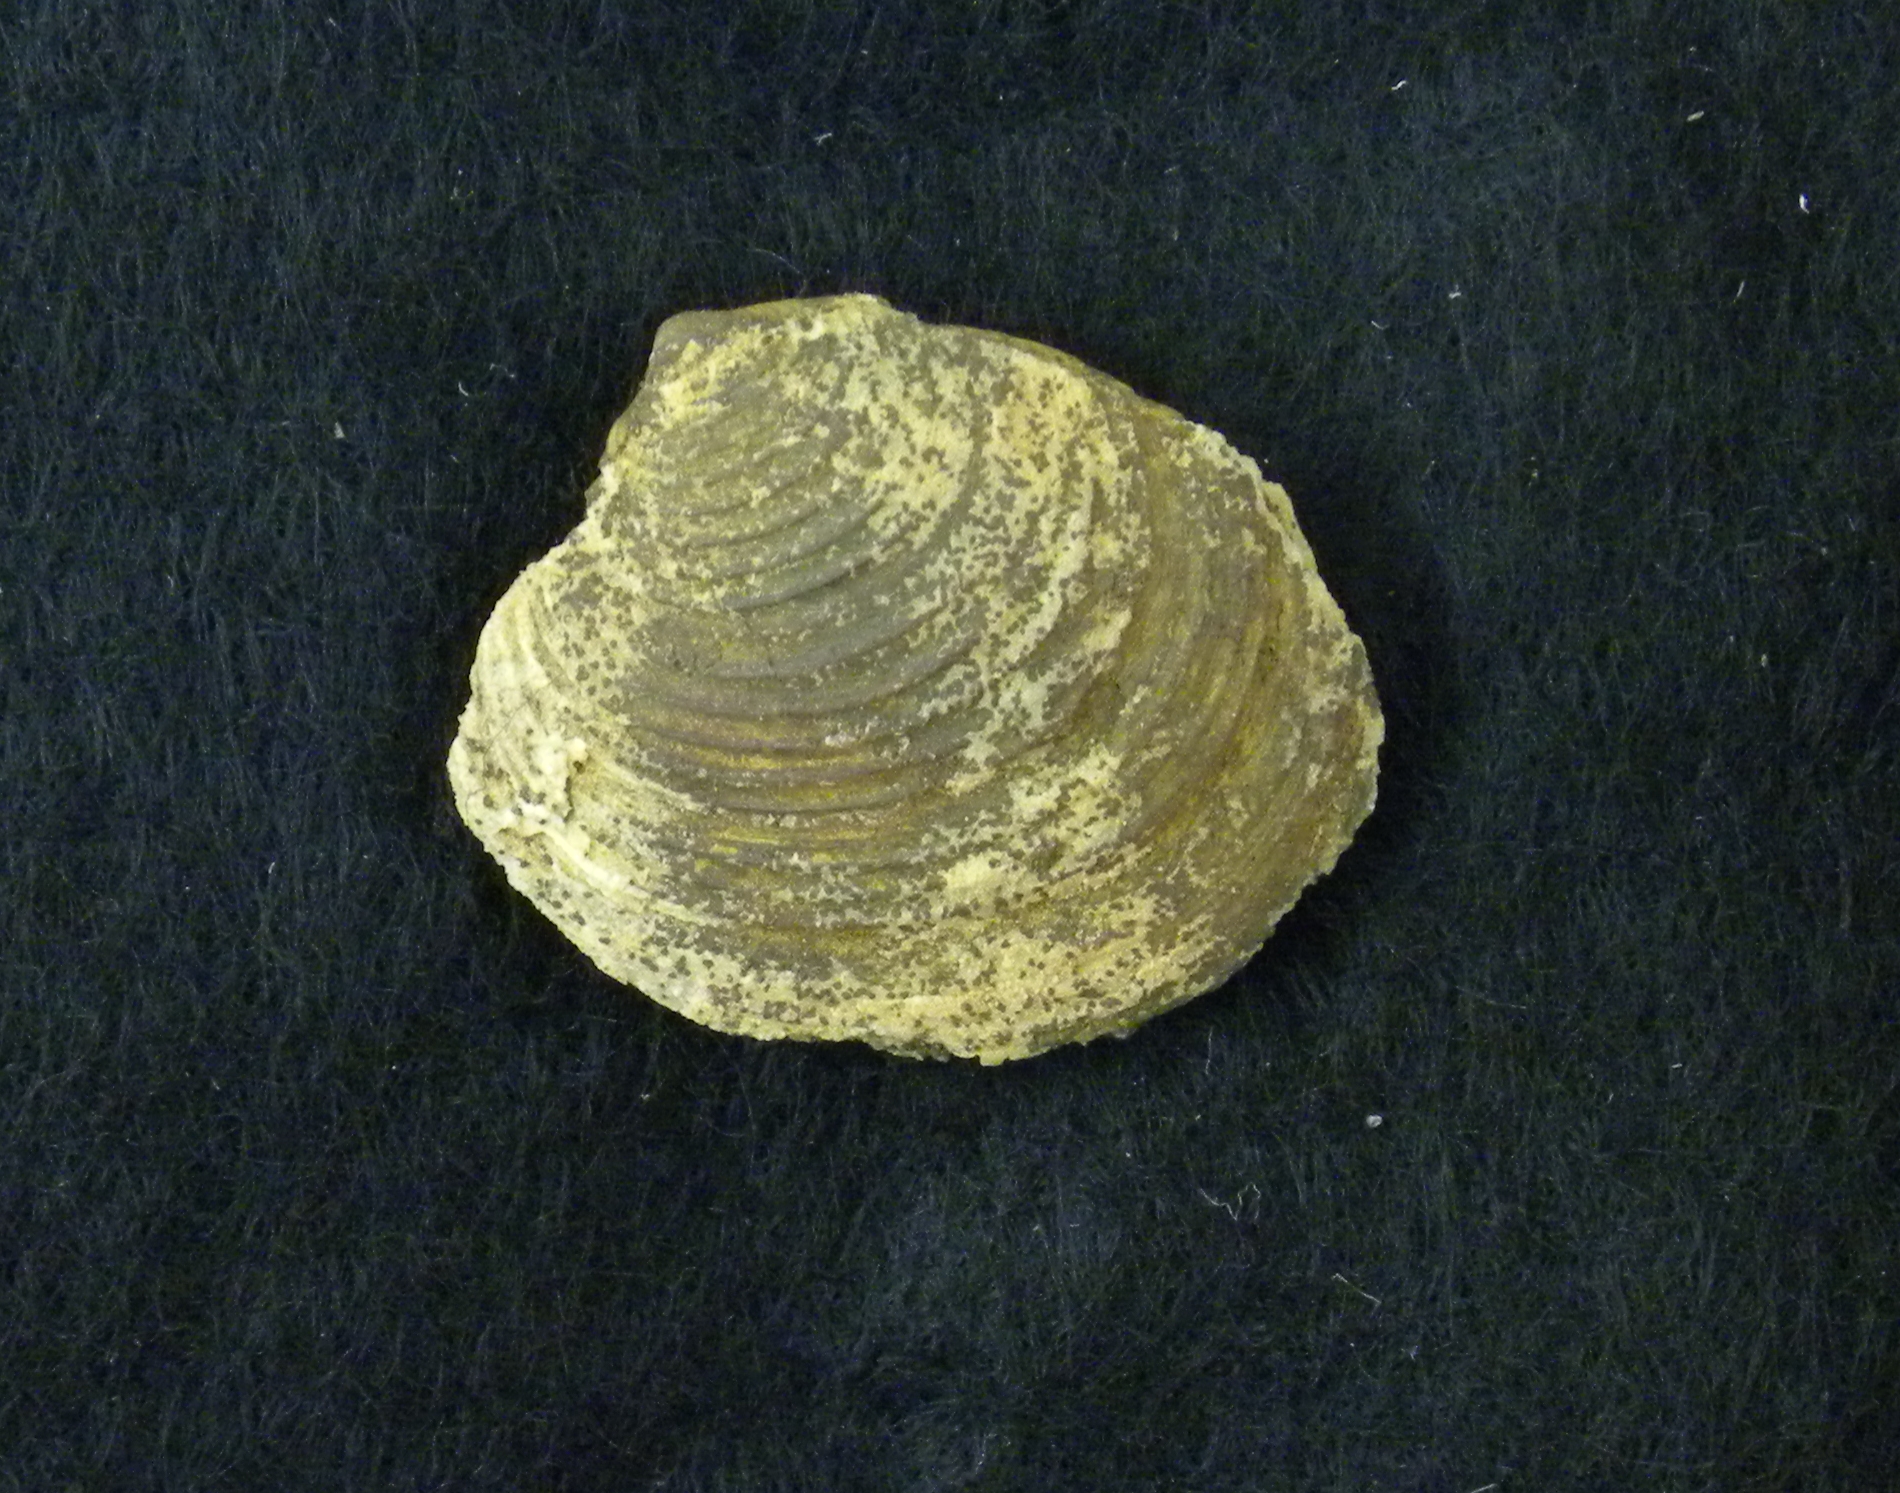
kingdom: Animalia
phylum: Mollusca
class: Bivalvia
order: Carditida
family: Astartidae
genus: Astarte
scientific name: Astarte
